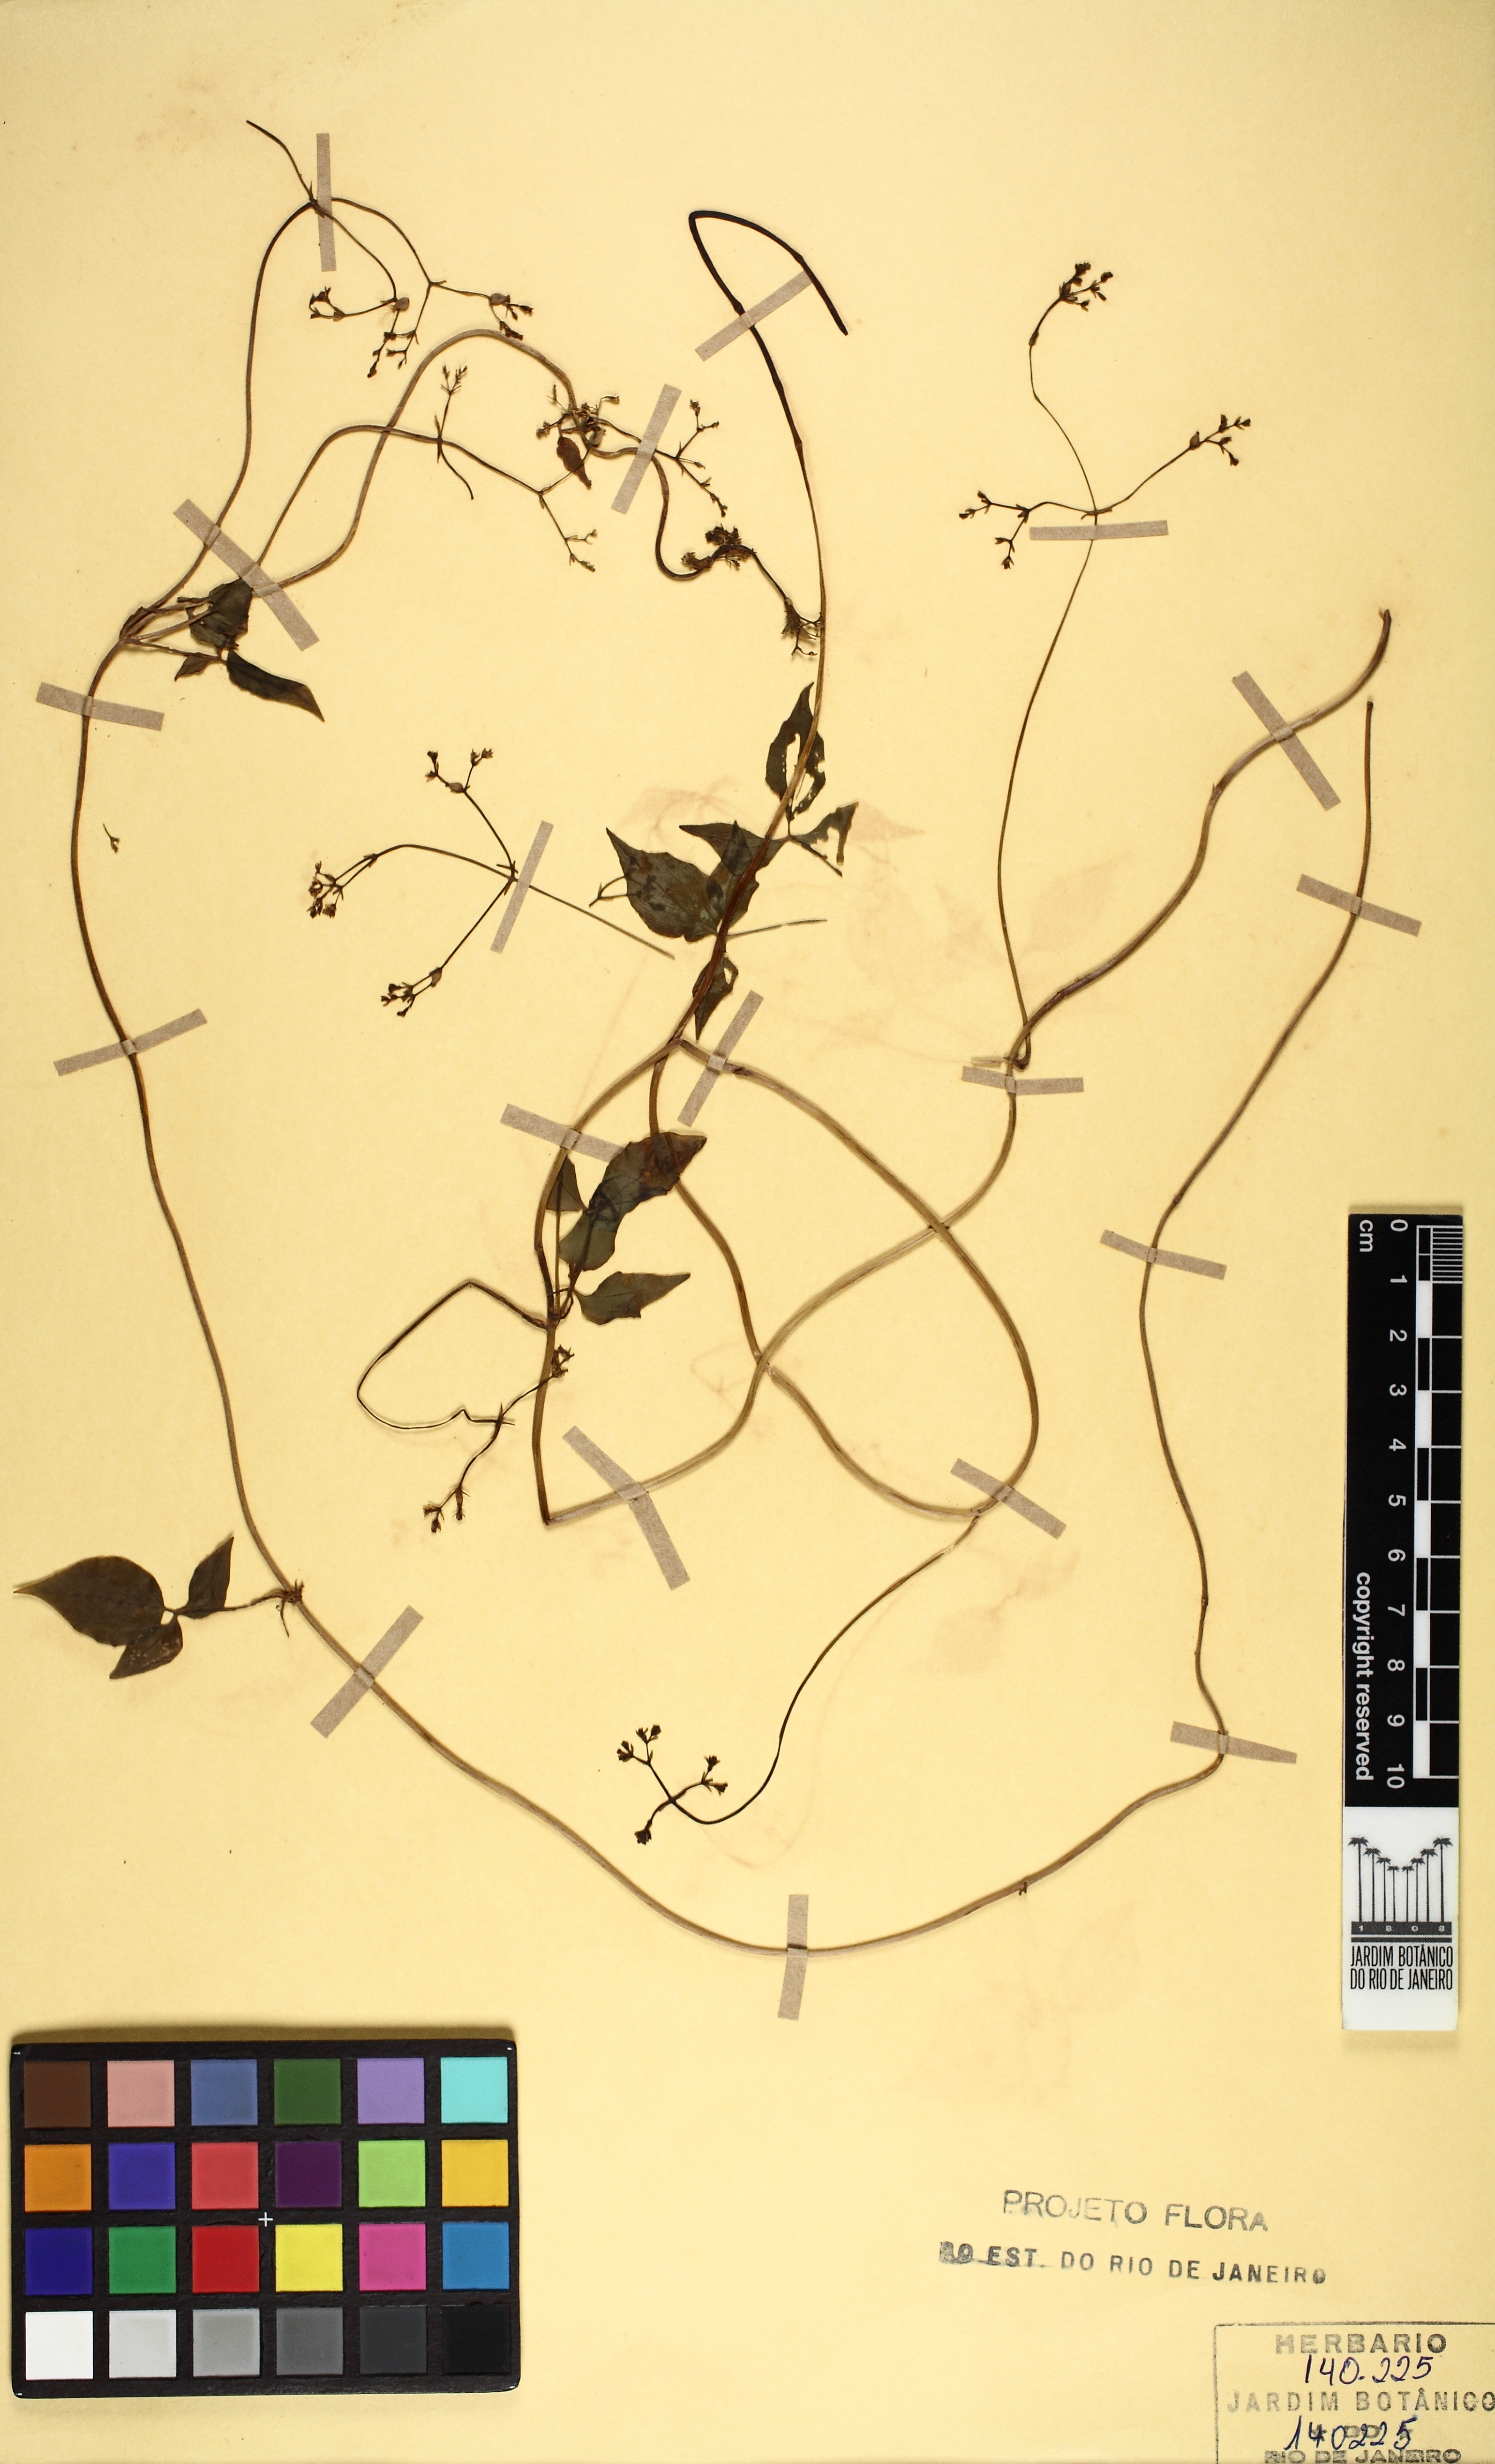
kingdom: Plantae
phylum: Tracheophyta
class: Magnoliopsida
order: Dipsacales
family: Caprifoliaceae
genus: Valeriana
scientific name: Valeriana scandens
